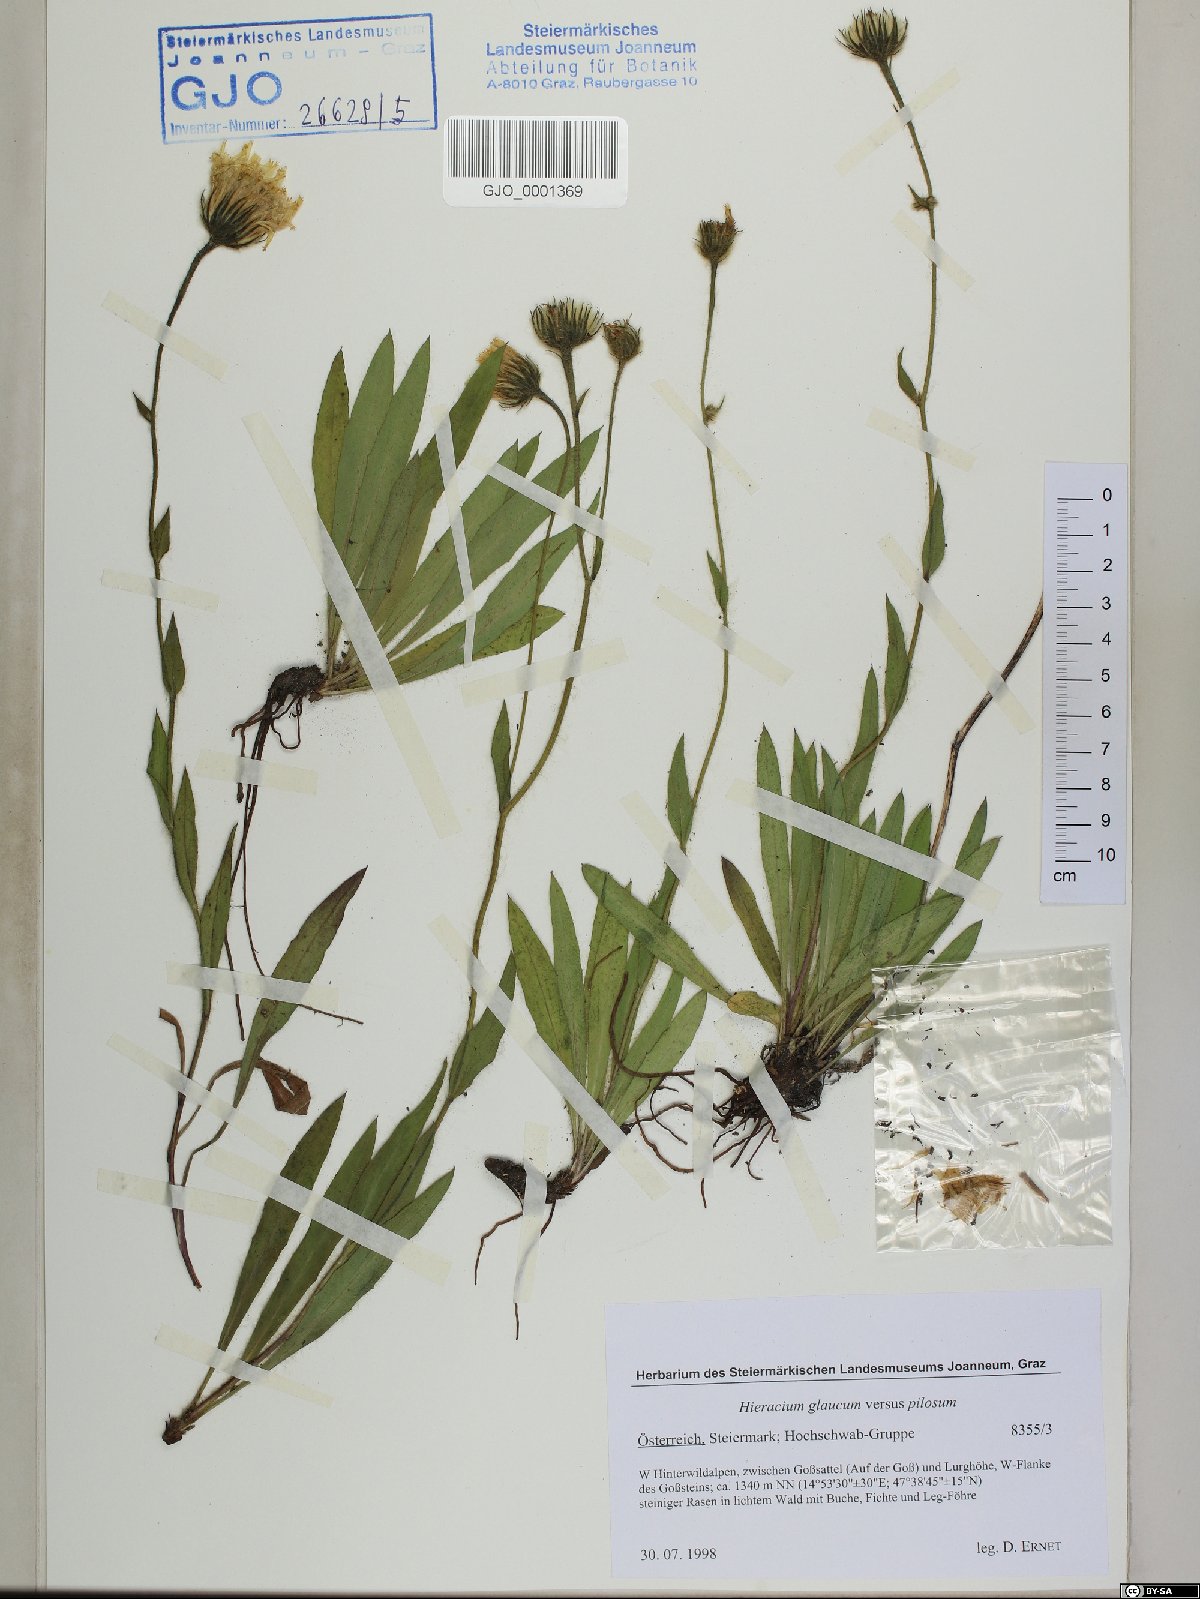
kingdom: Plantae
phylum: Tracheophyta
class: Magnoliopsida
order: Asterales
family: Asteraceae
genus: Hieracium
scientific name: Hieracium glaucum
